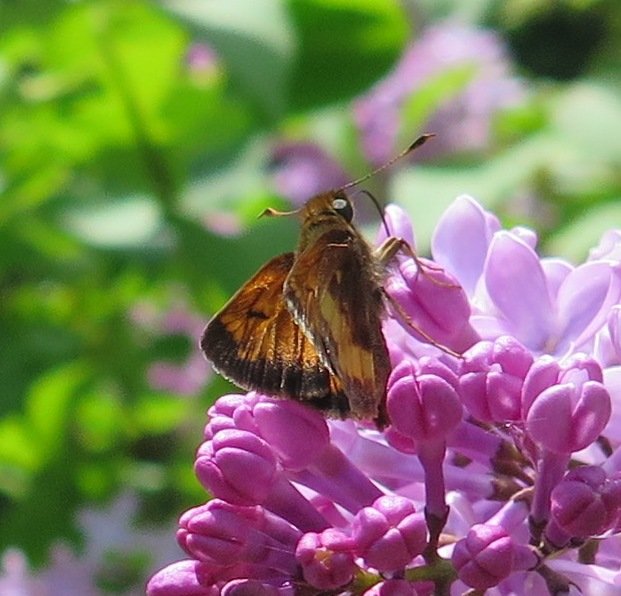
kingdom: Animalia
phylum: Arthropoda
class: Insecta
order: Lepidoptera
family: Hesperiidae
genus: Lon
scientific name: Lon hobomok
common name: Hobomok Skipper
